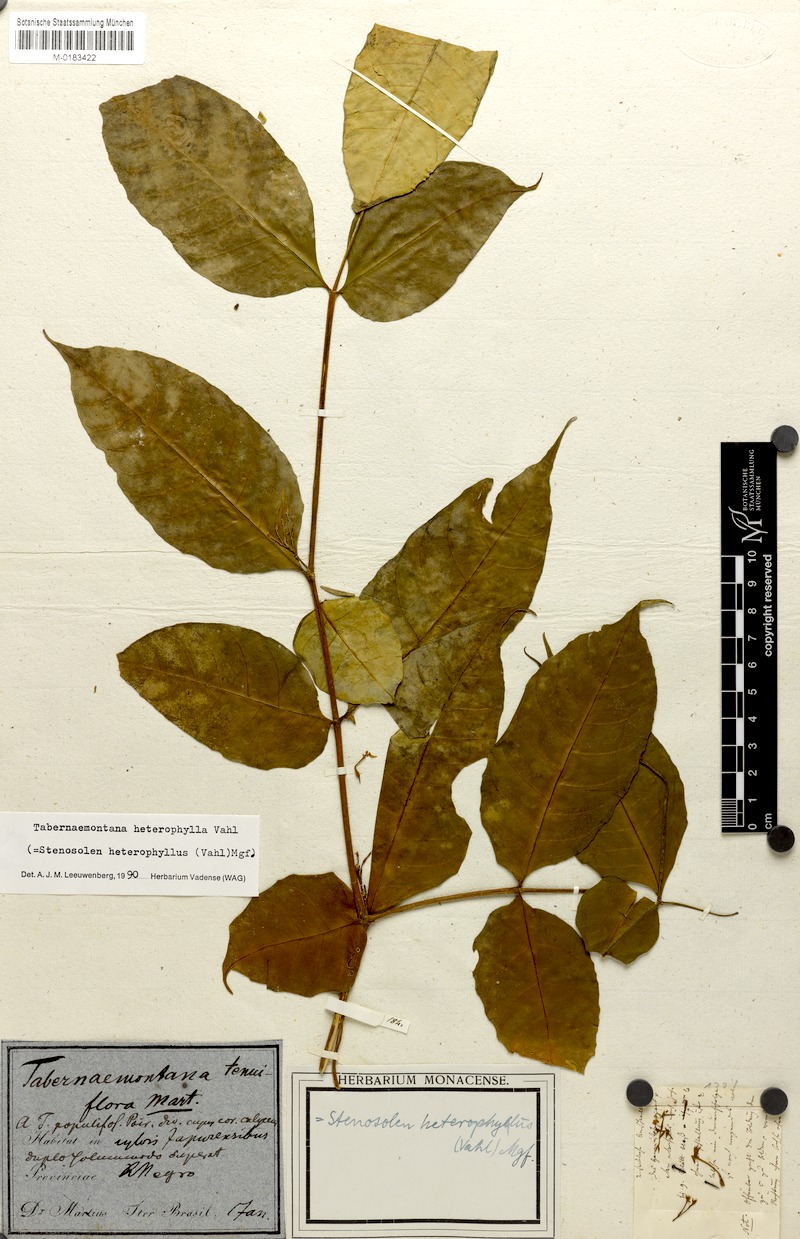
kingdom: Plantae
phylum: Tracheophyta
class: Magnoliopsida
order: Gentianales
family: Apocynaceae
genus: Tabernaemontana
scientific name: Tabernaemontana heterophylla
